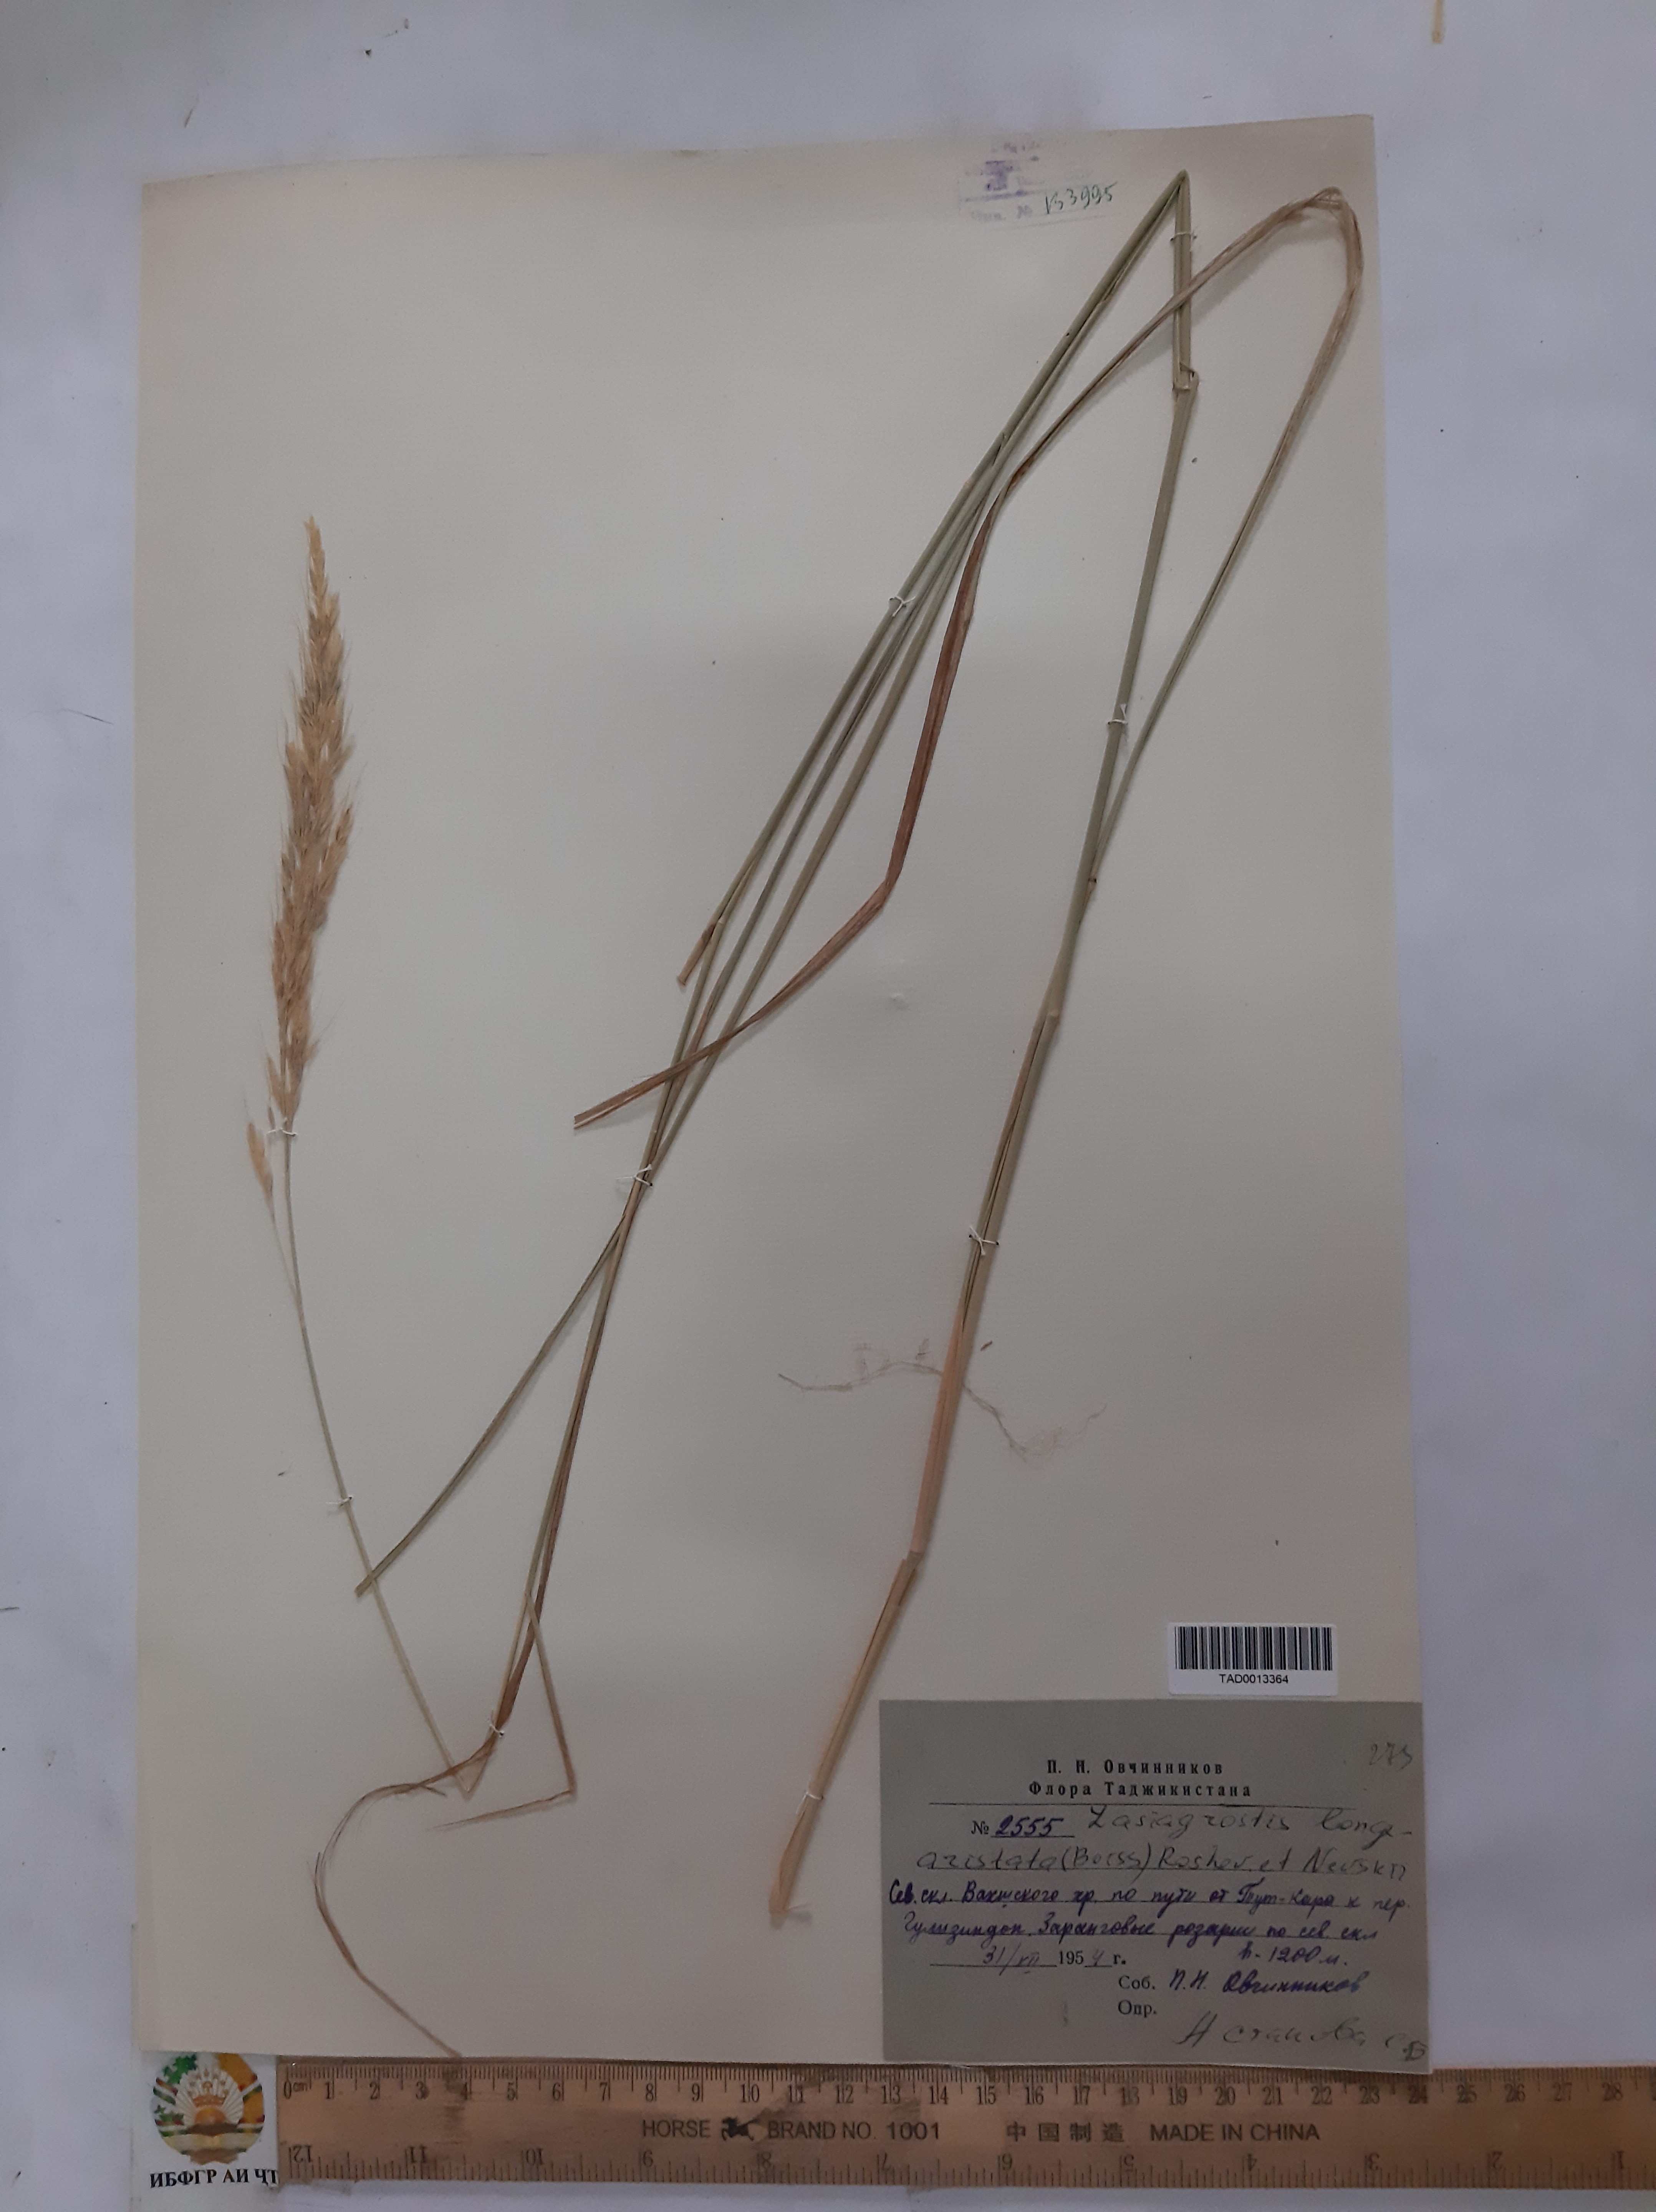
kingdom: Plantae
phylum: Tracheophyta
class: Liliopsida
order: Poales
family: Poaceae
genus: Achnatherum
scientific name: Achnatherum turcomanicum
